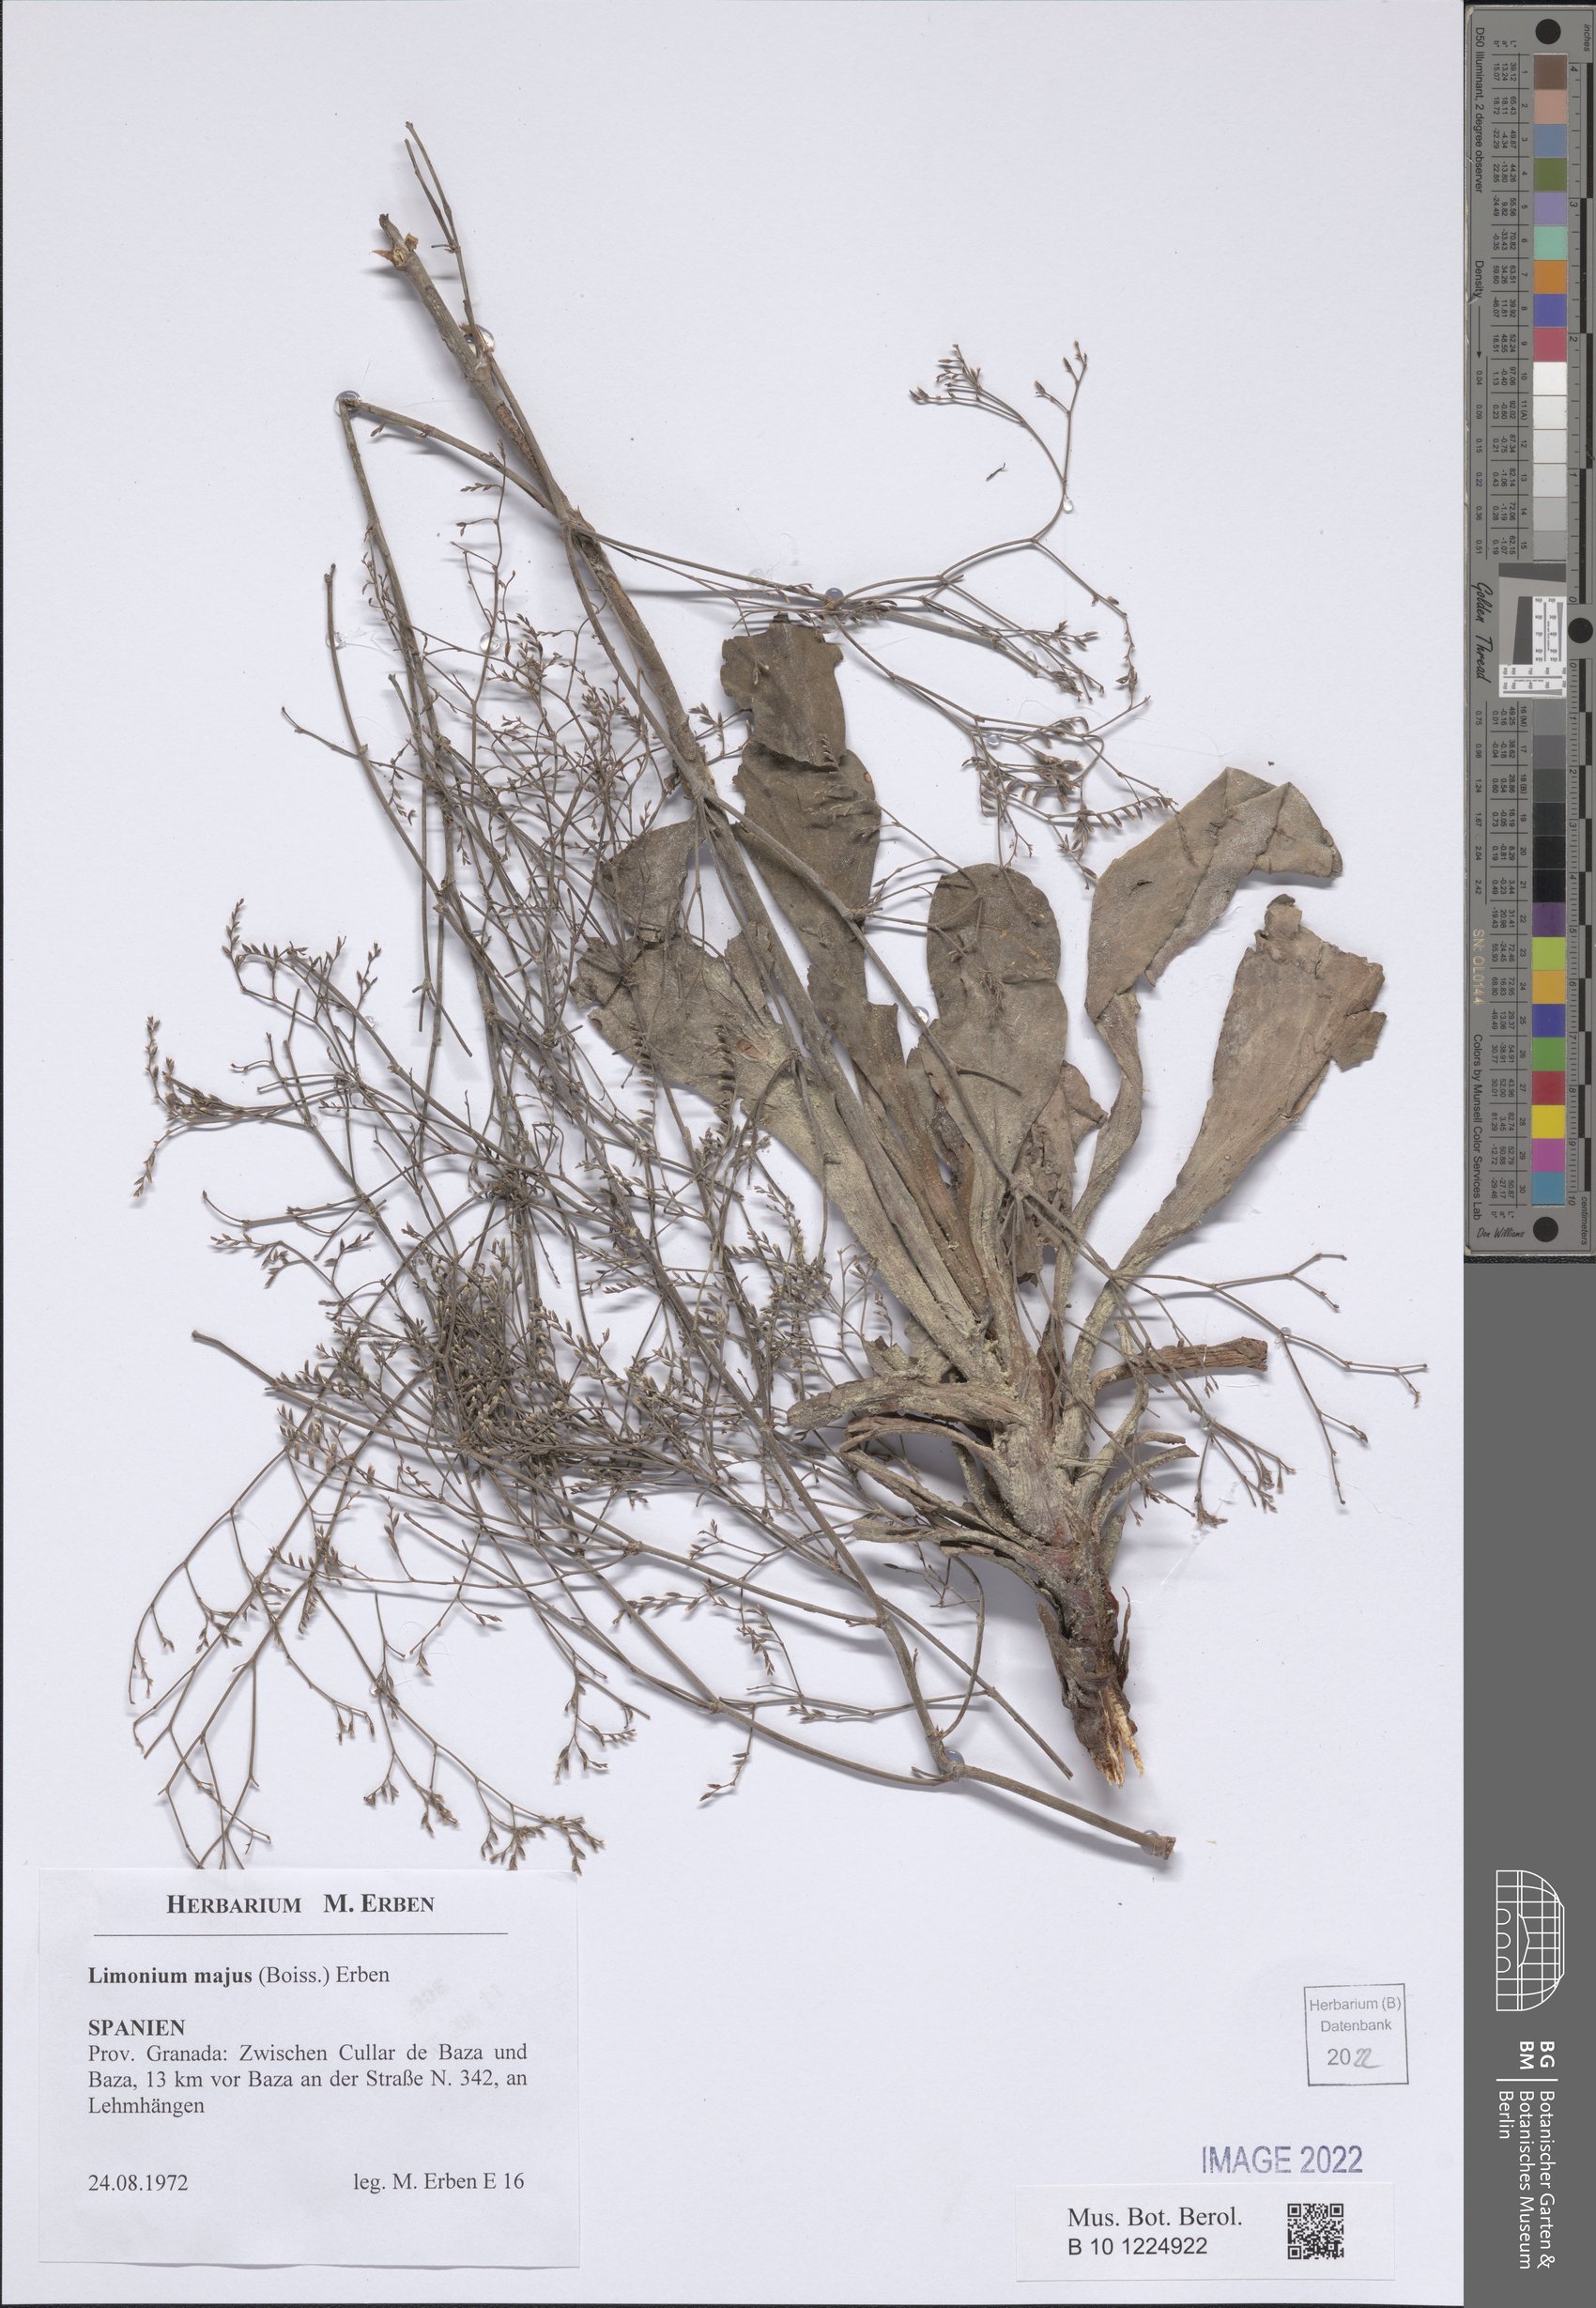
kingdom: Plantae
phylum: Tracheophyta
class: Magnoliopsida
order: Caryophyllales
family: Plumbaginaceae
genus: Limonium
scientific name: Limonium majus
